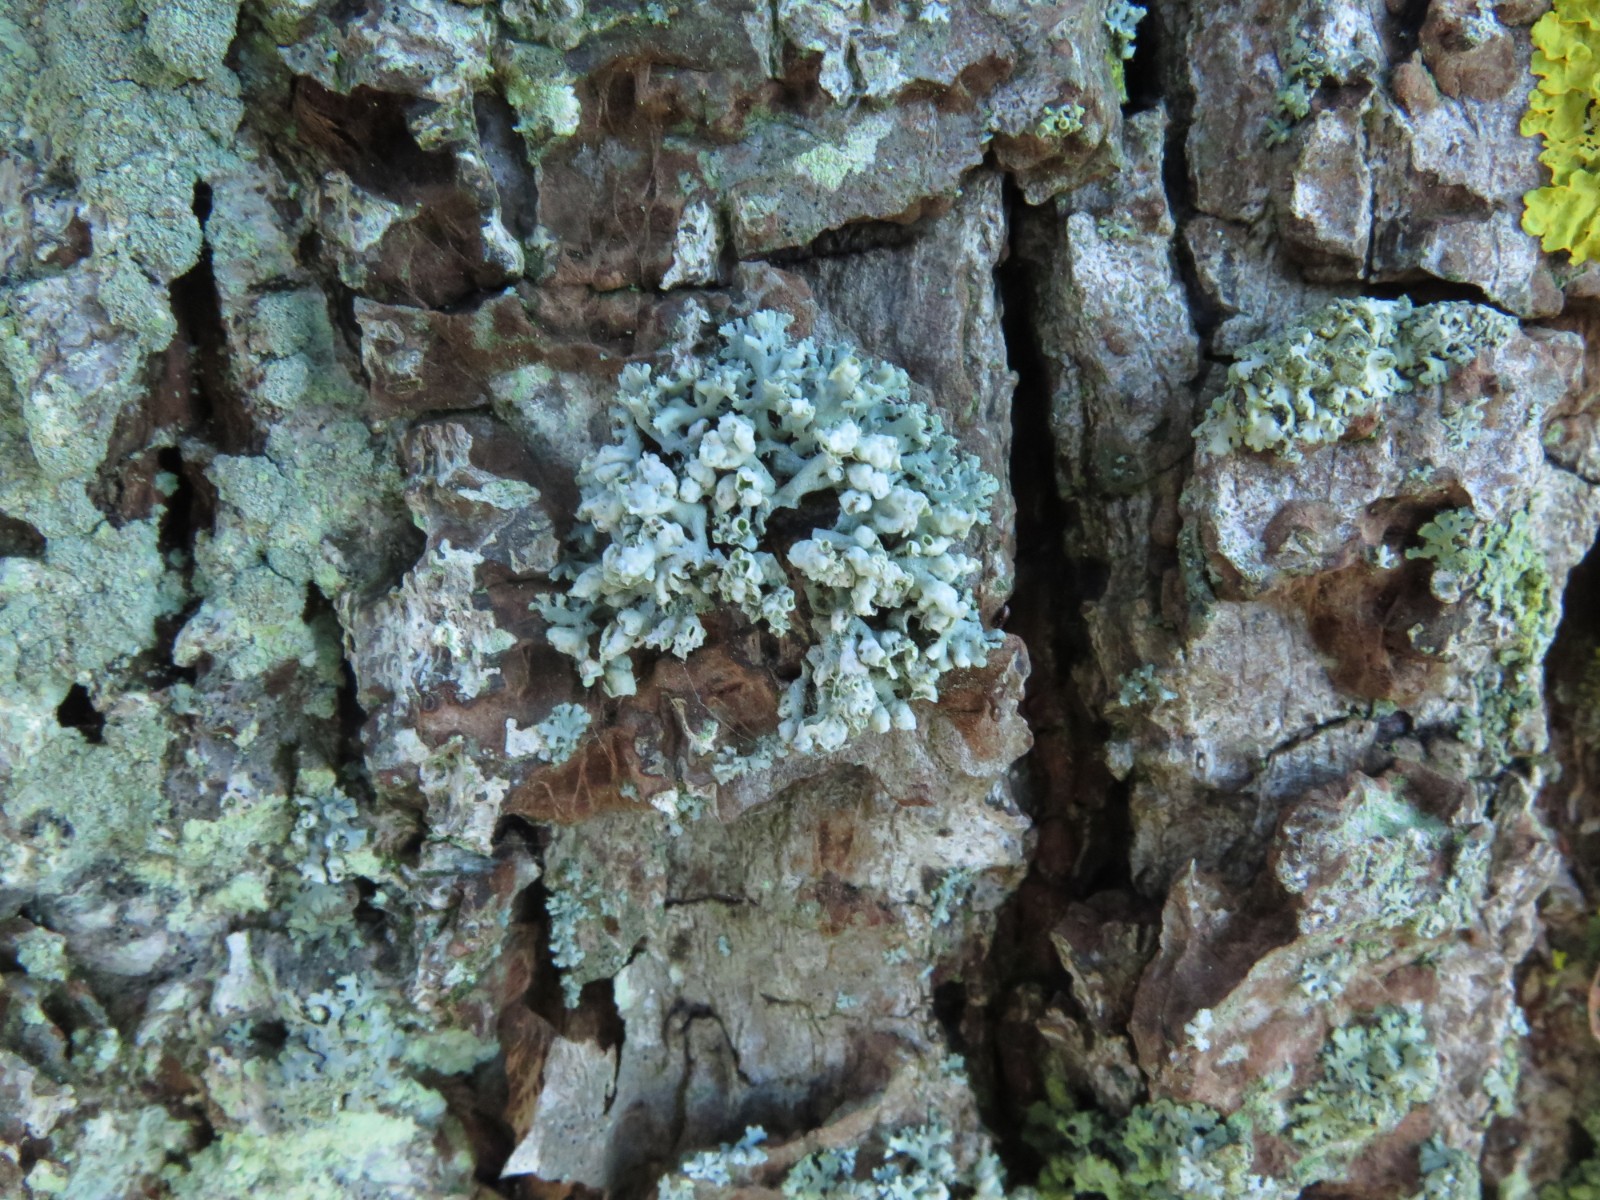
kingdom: Fungi
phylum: Ascomycota
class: Lecanoromycetes
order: Caliciales
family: Physciaceae
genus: Physcia
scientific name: Physcia adscendens
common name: hætte-rosetlav
